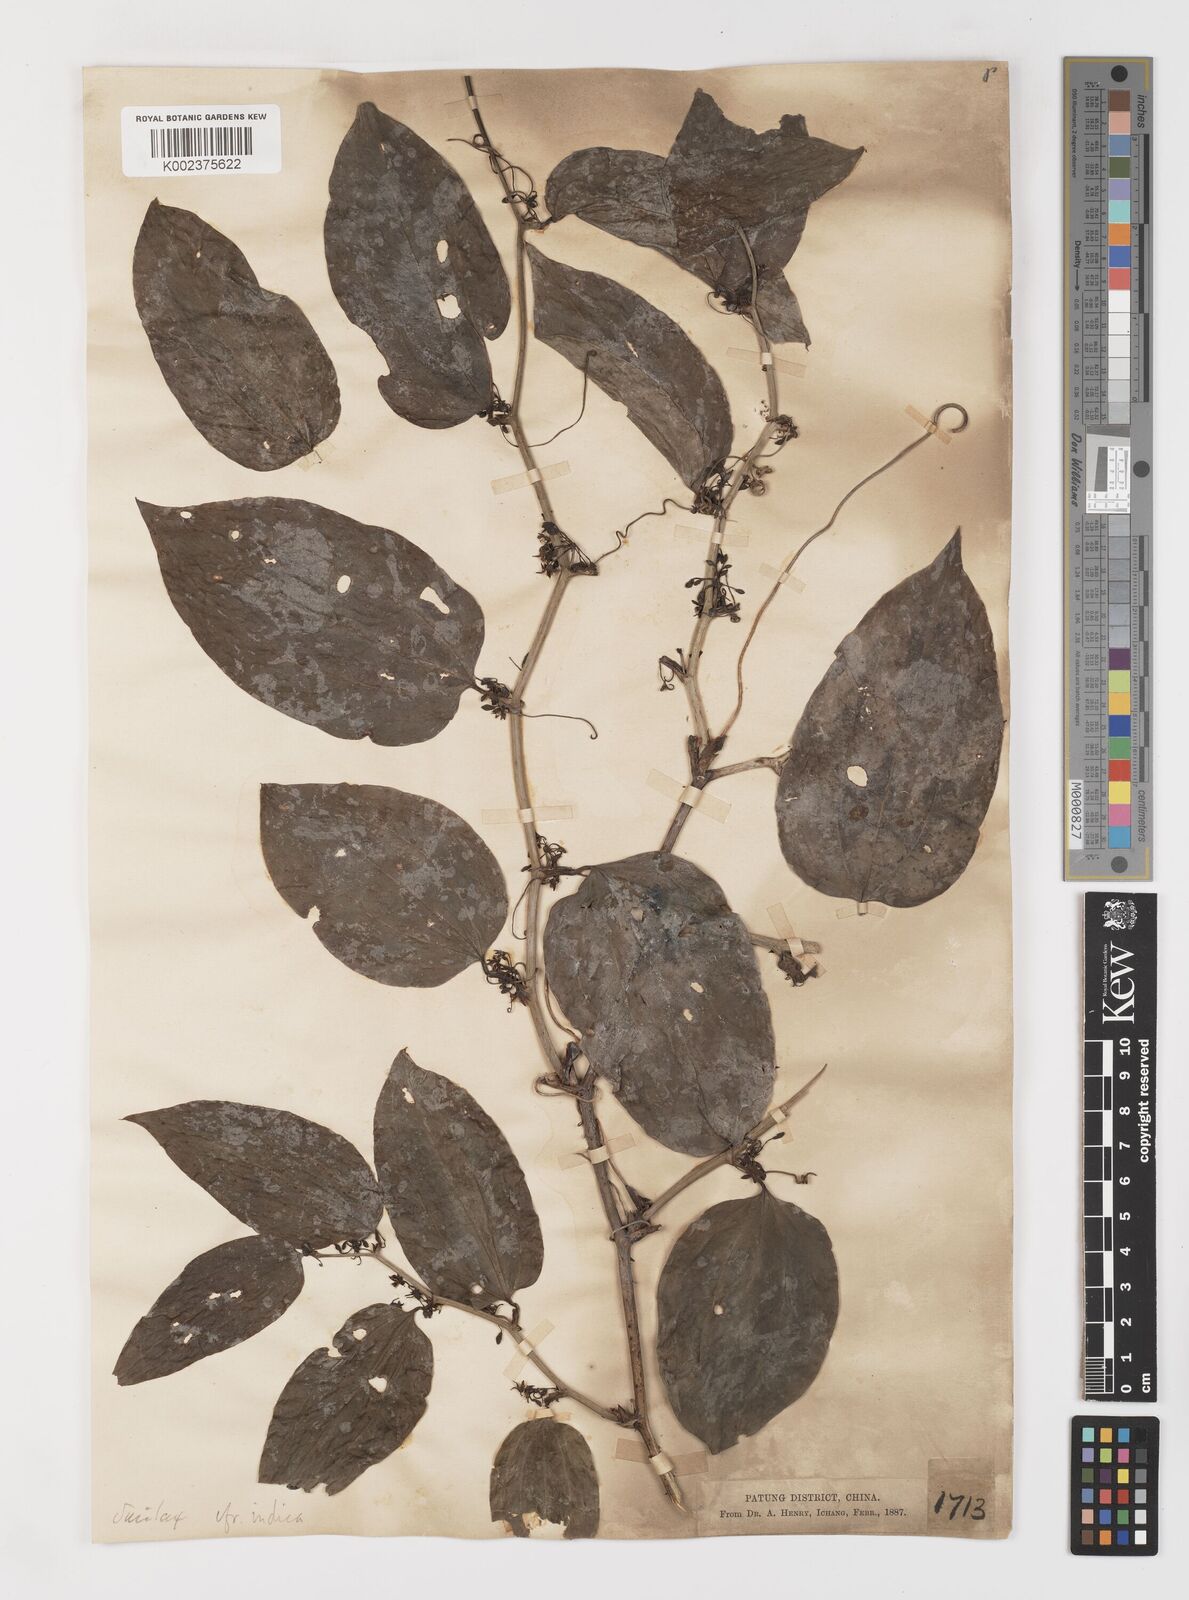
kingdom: Plantae
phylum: Tracheophyta
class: Liliopsida
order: Liliales
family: Smilacaceae
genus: Smilax
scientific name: Smilax scobinicaulis
